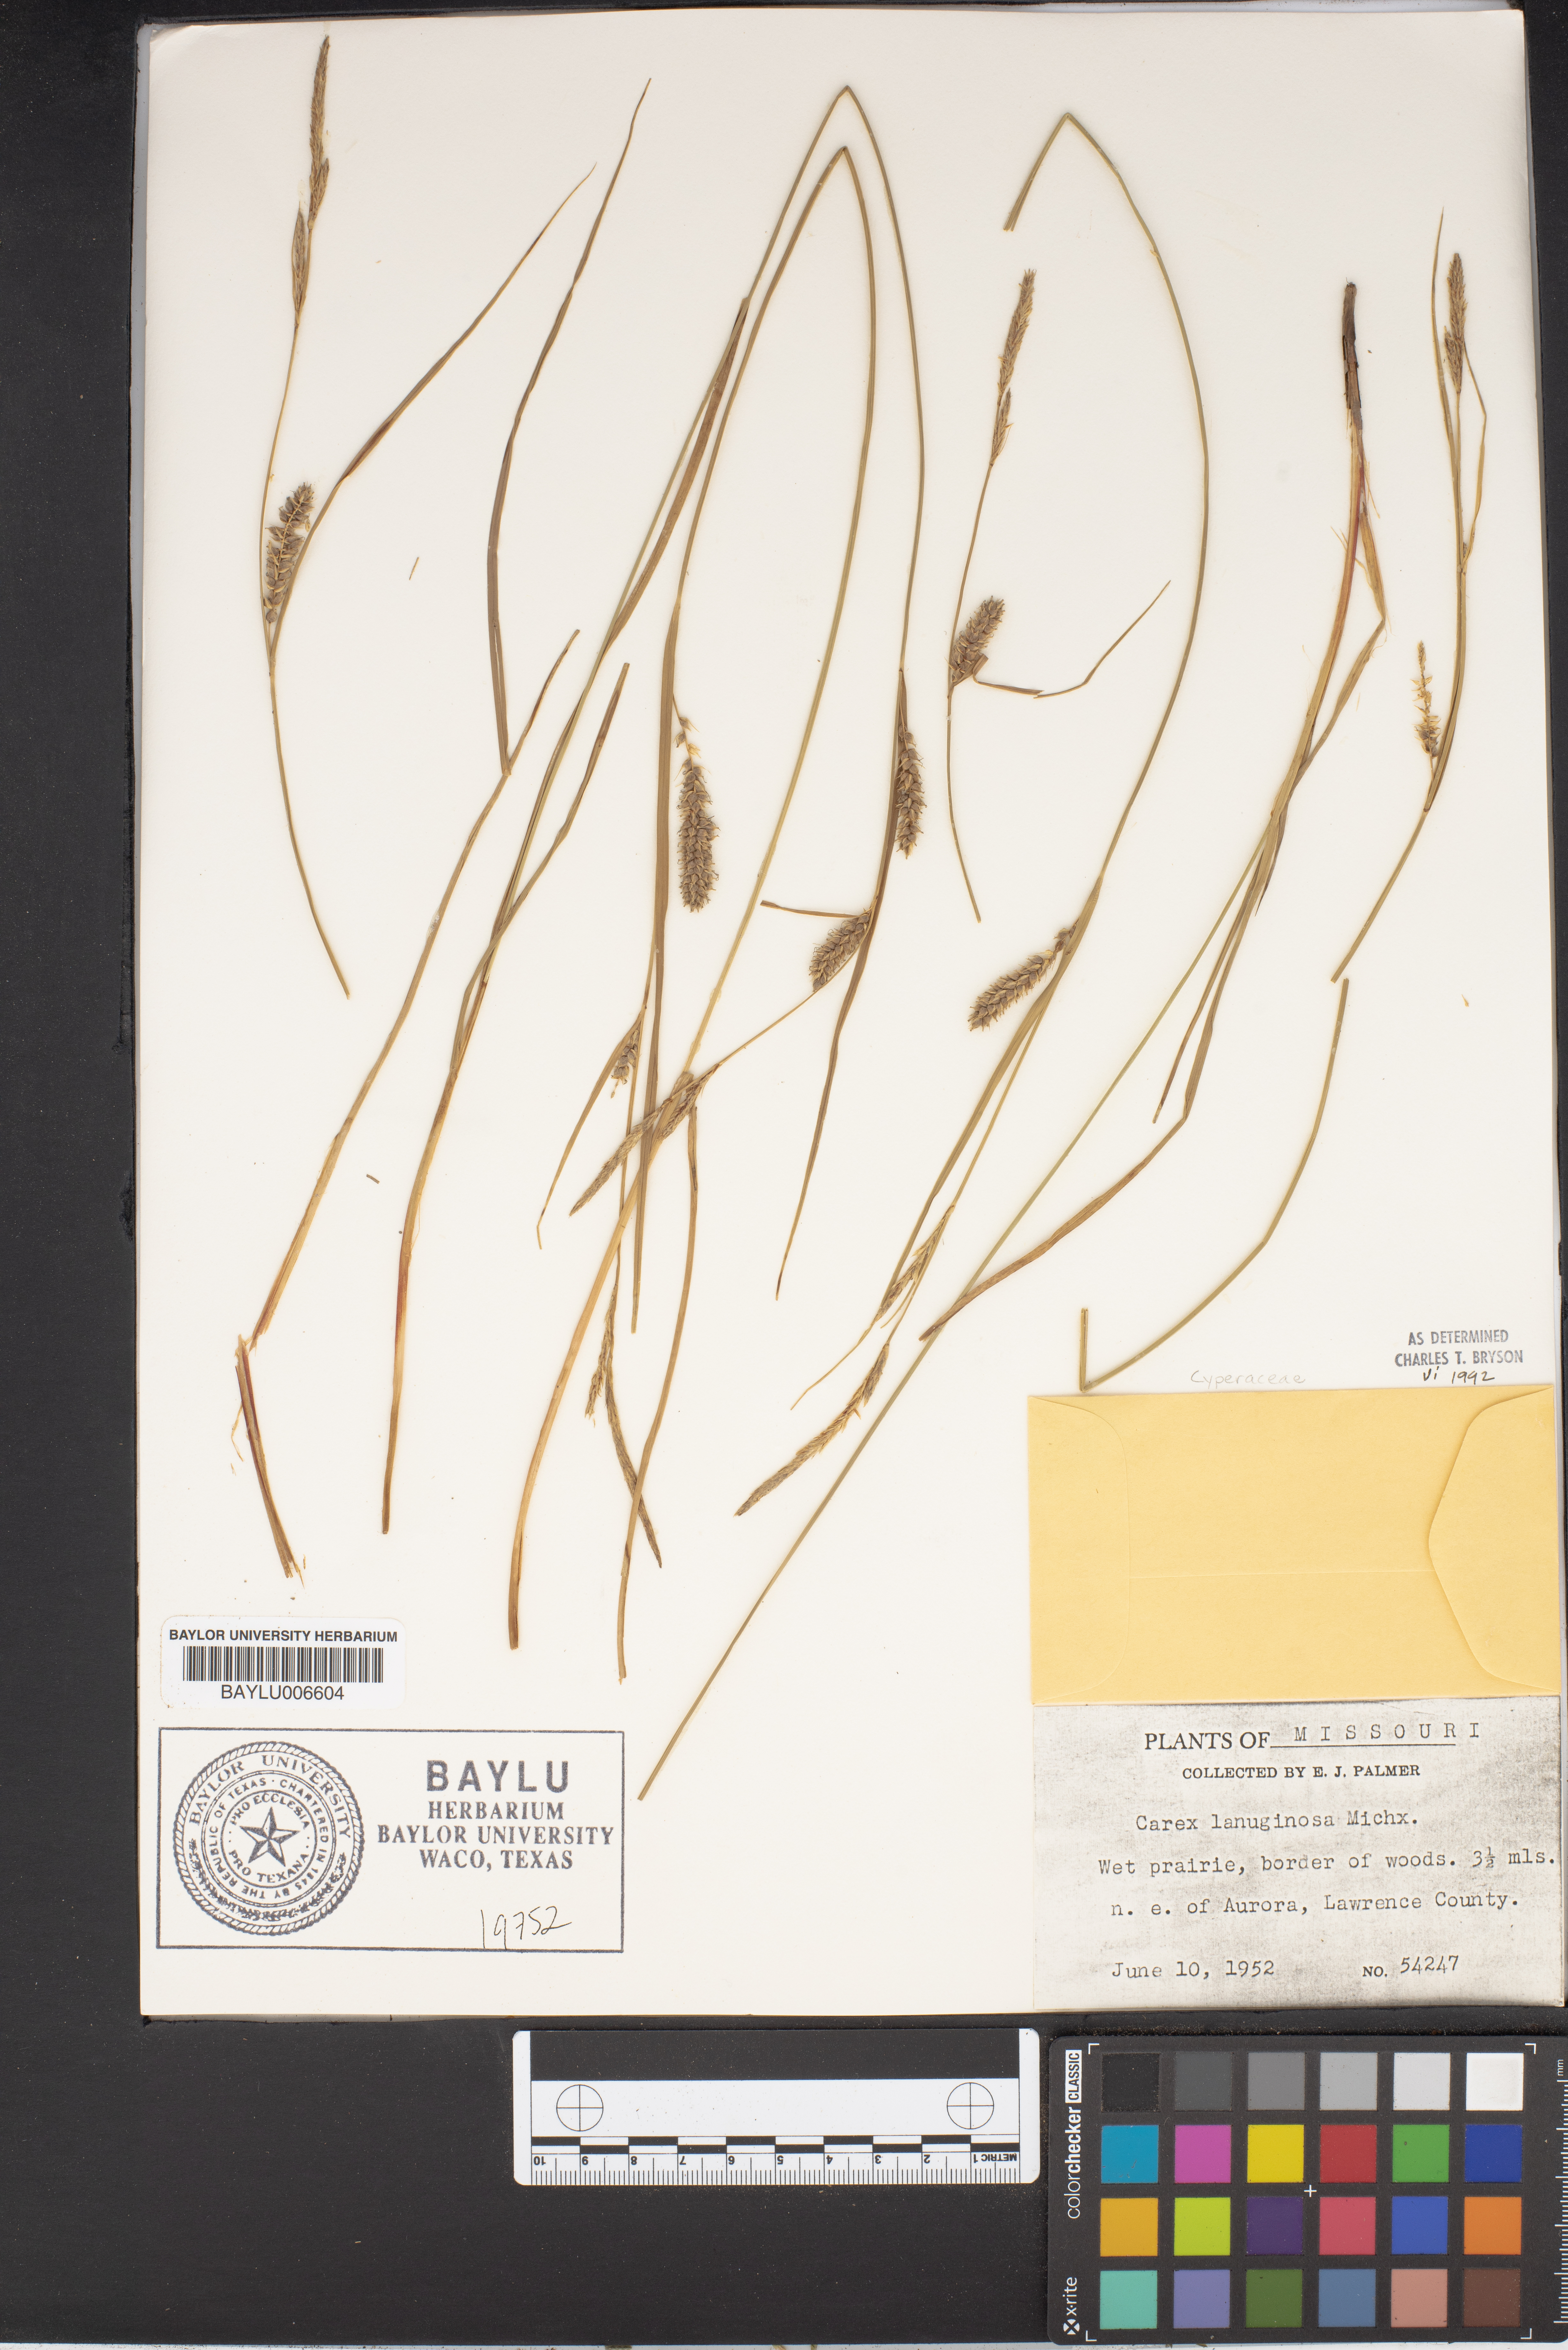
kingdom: Plantae
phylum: Tracheophyta
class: Liliopsida
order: Poales
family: Cyperaceae
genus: Carex
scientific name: Carex lasiocarpa
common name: Slender sedge
